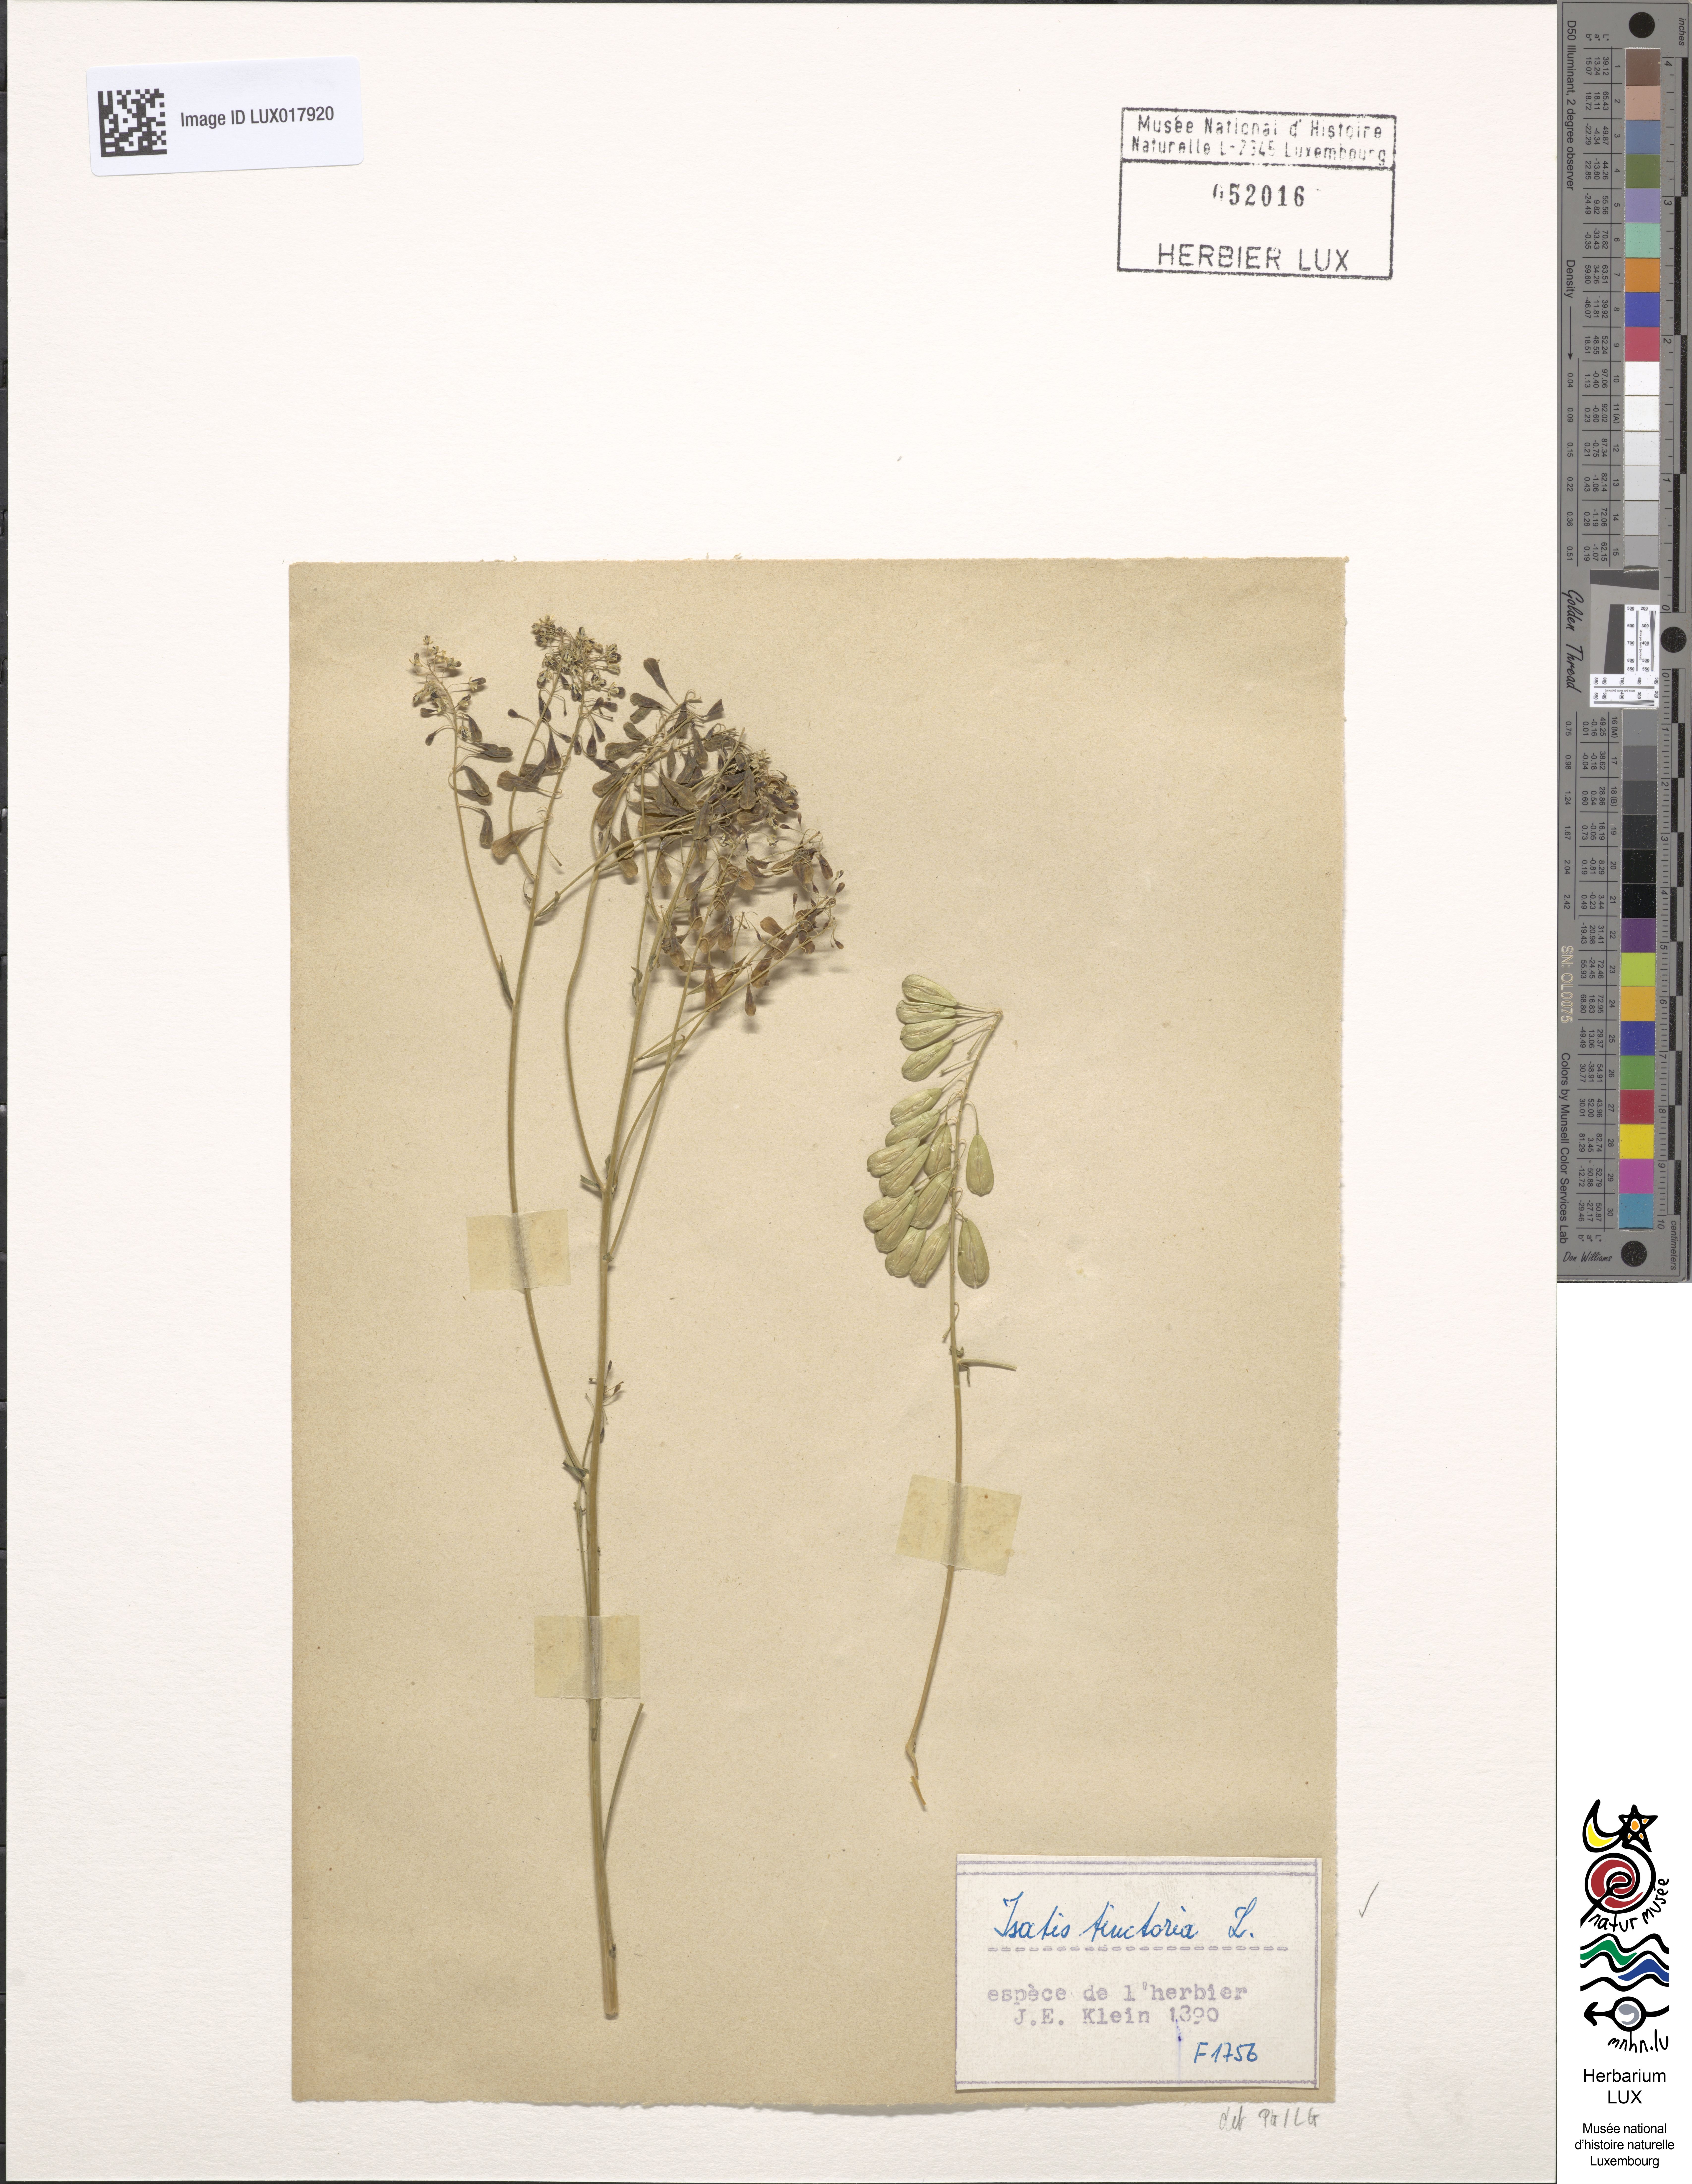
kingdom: Plantae
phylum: Tracheophyta
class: Magnoliopsida
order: Brassicales
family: Brassicaceae
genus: Isatis
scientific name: Isatis tinctoria
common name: Woad
